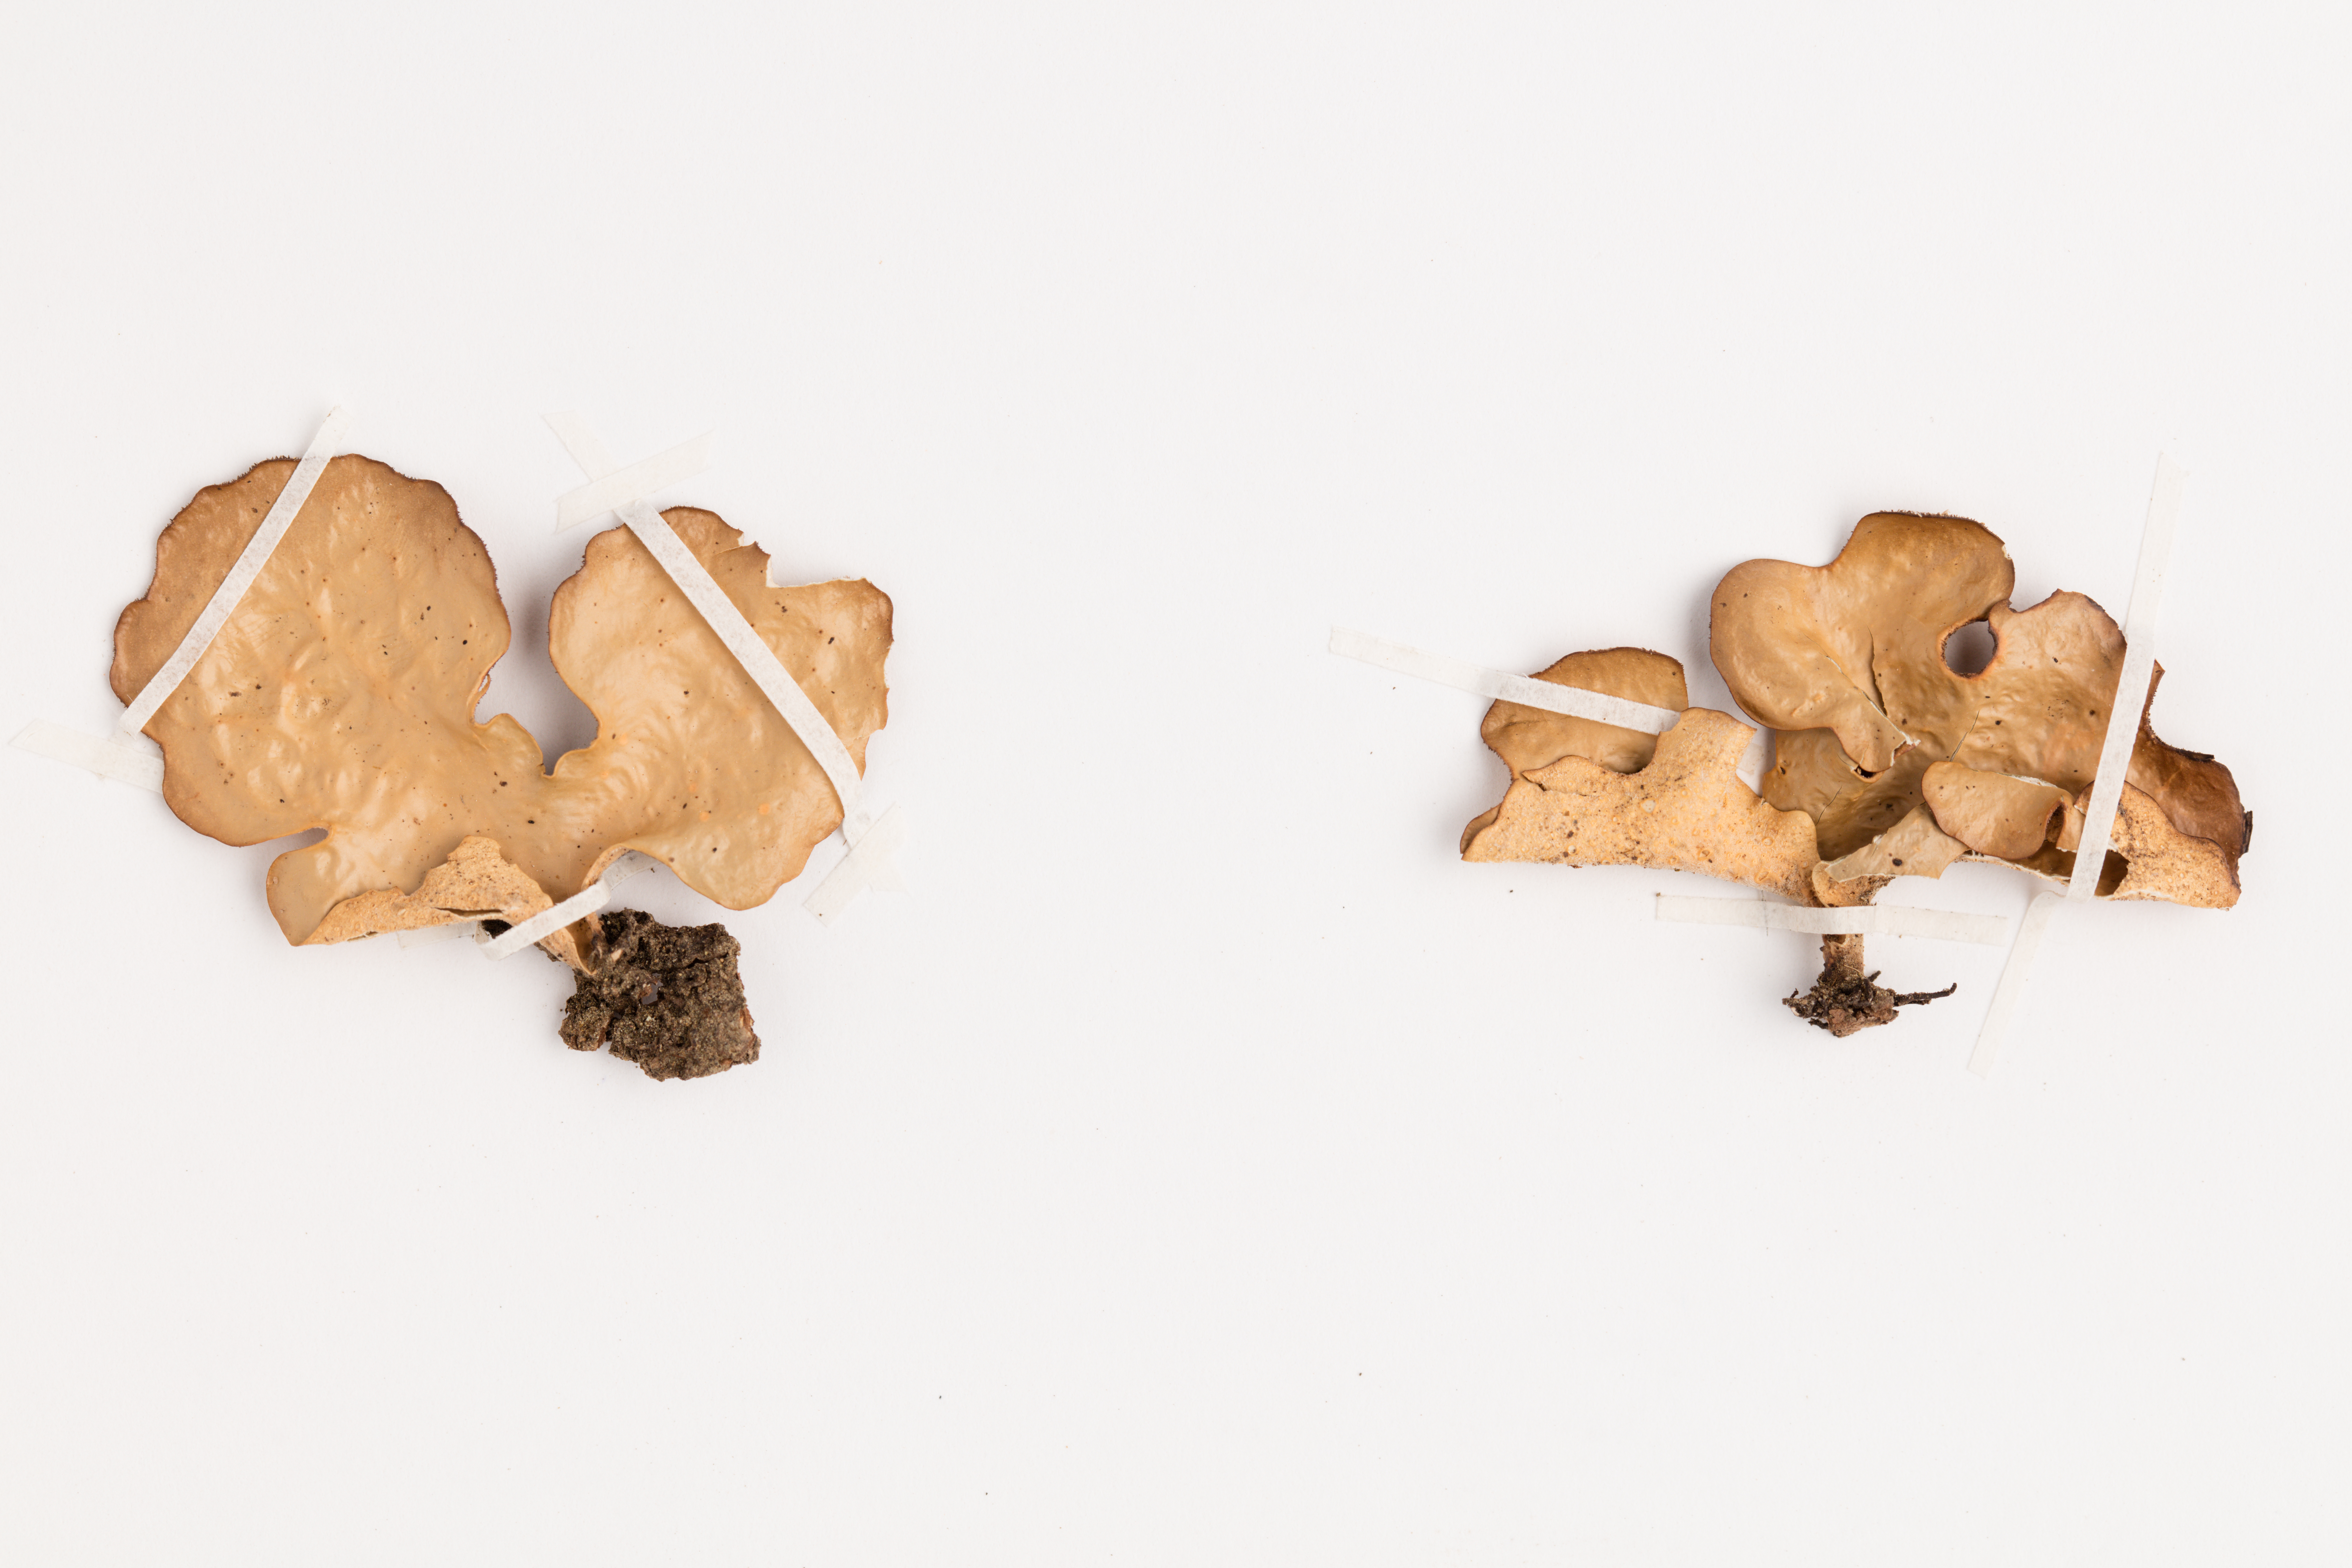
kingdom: Fungi
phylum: Ascomycota
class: Lecanoromycetes
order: Peltigerales
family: Lobariaceae
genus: Sticta
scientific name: Sticta latifrons
